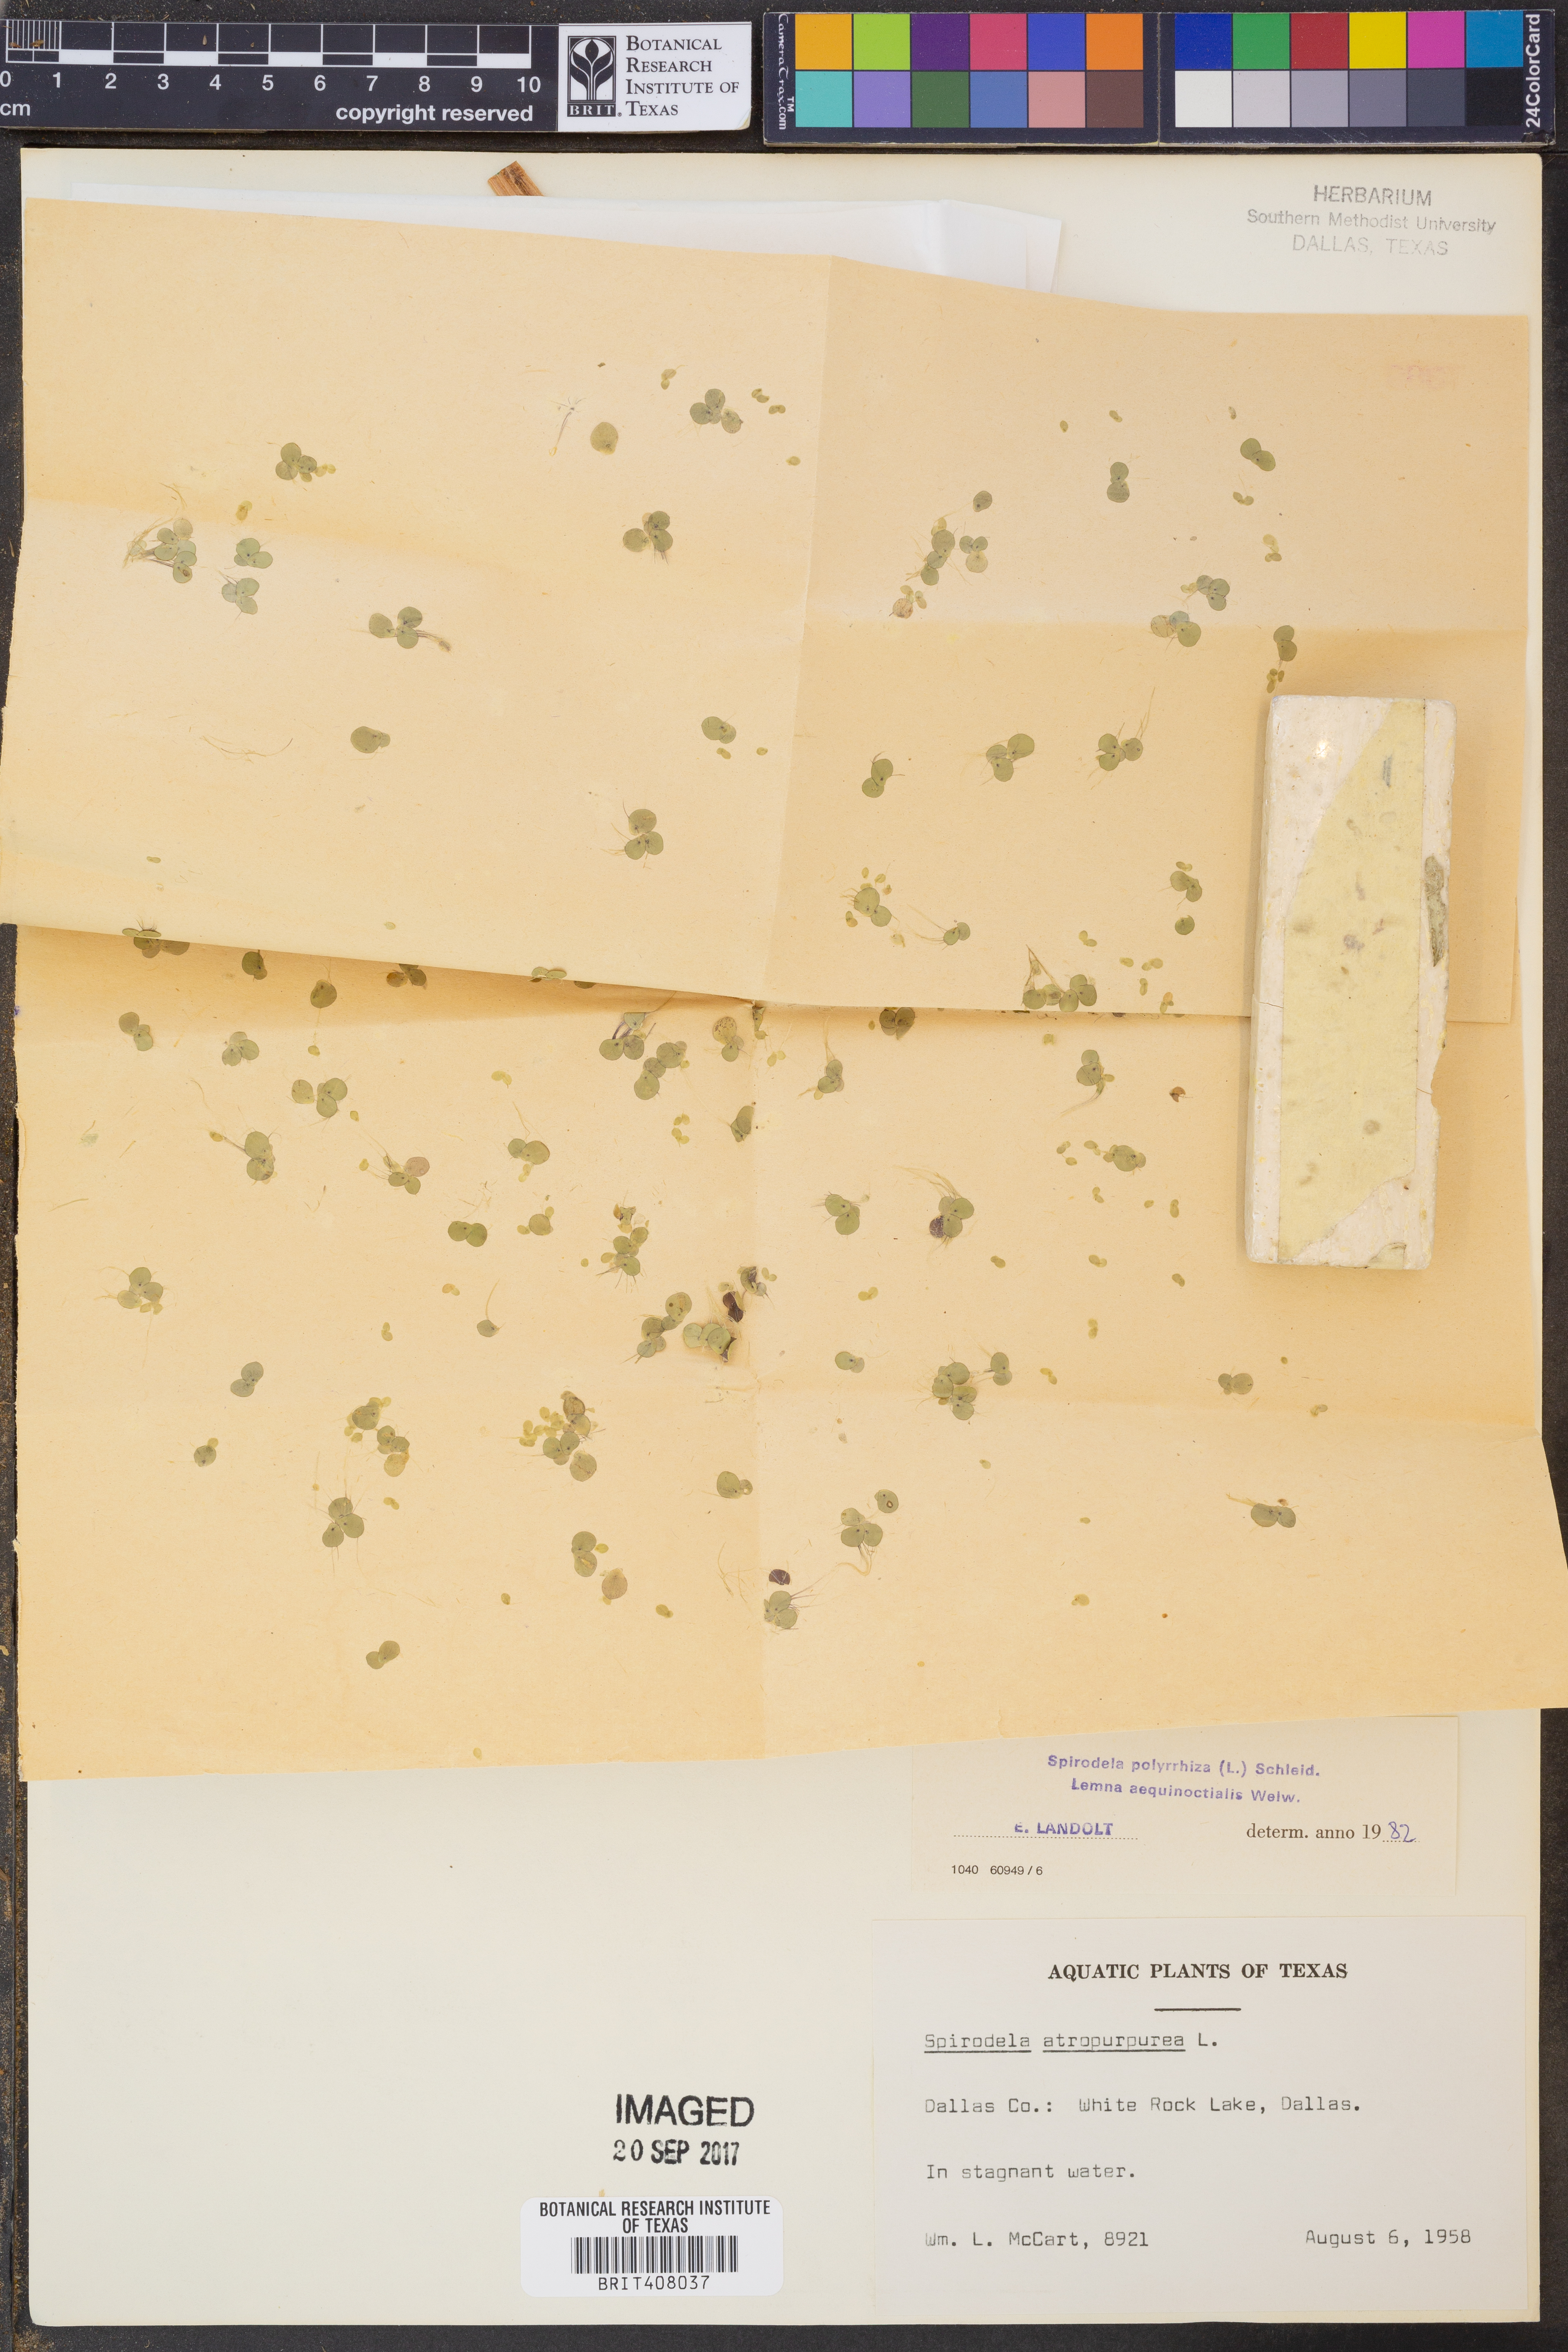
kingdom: Plantae
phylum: Tracheophyta
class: Liliopsida
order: Alismatales
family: Araceae
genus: Spirodela
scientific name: Spirodela polyrhiza
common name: Great duckweed
